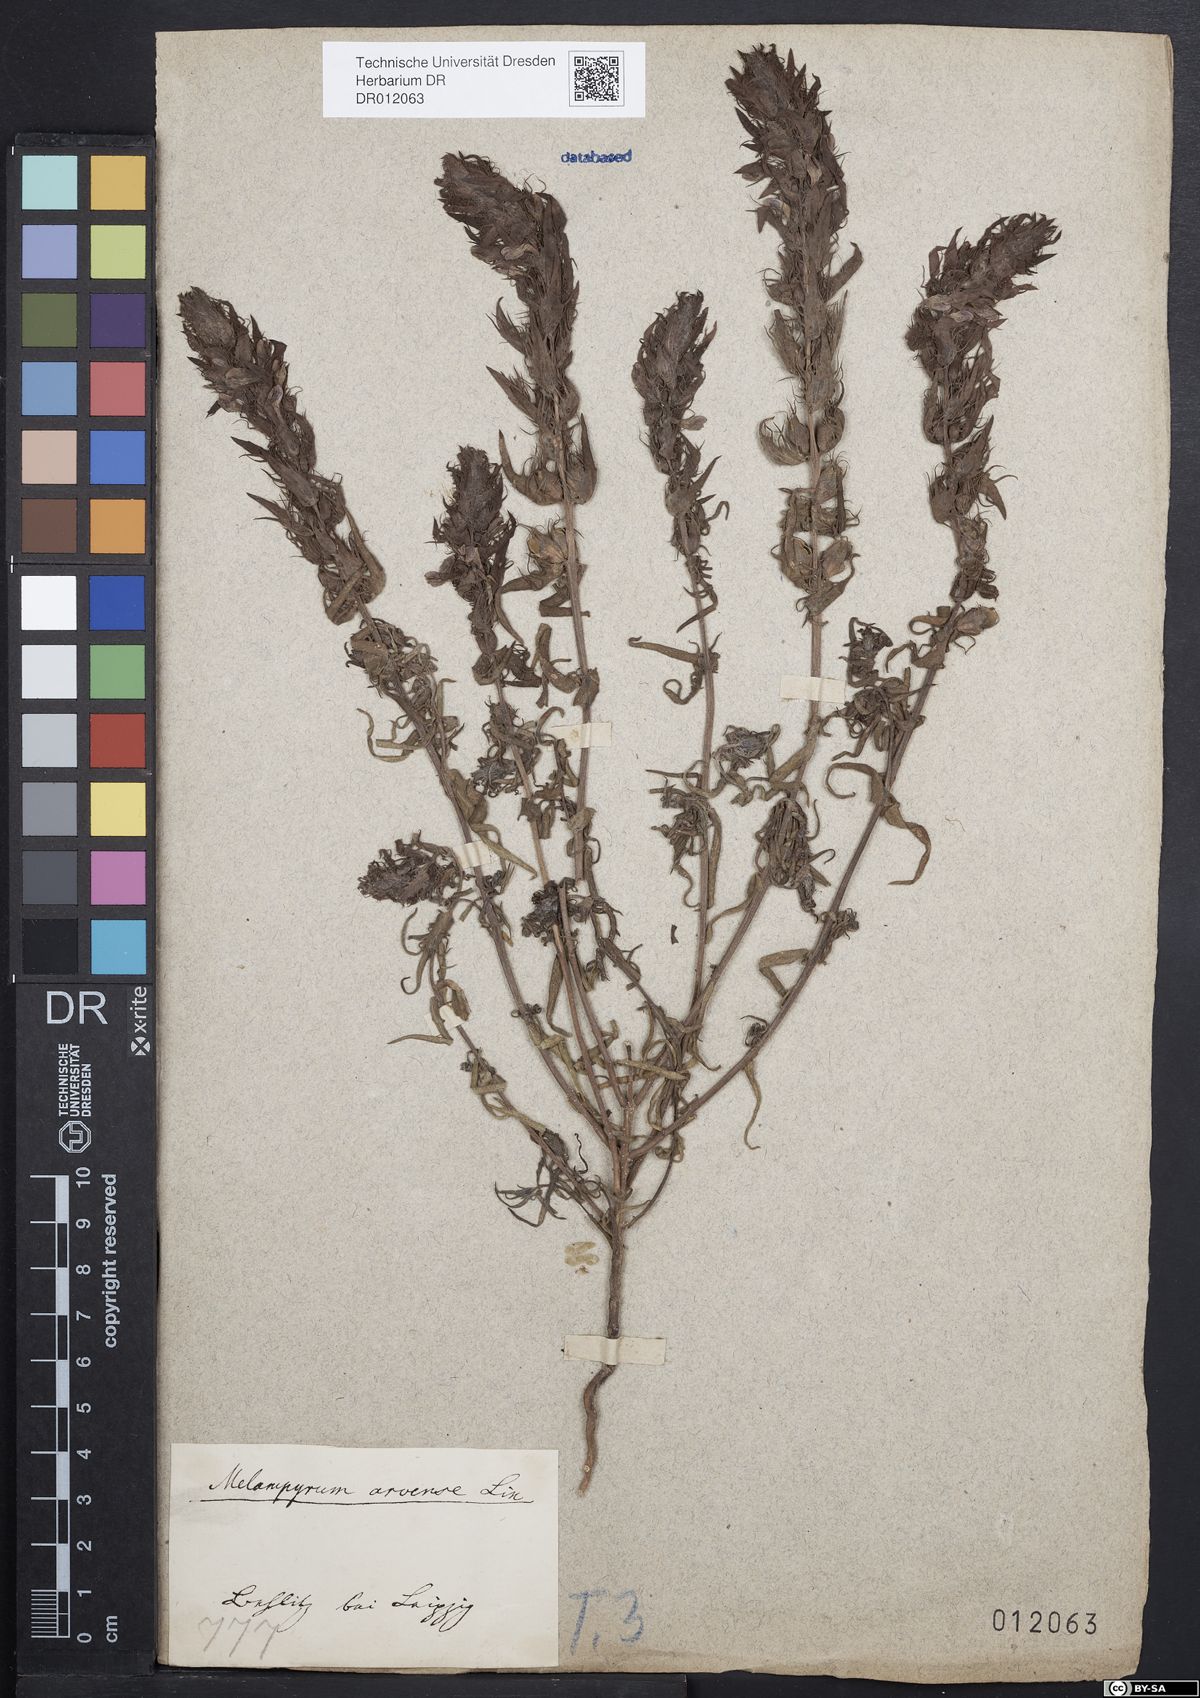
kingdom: Plantae
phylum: Tracheophyta
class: Magnoliopsida
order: Lamiales
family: Orobanchaceae
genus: Melampyrum
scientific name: Melampyrum arvense
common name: Field cow-wheat
